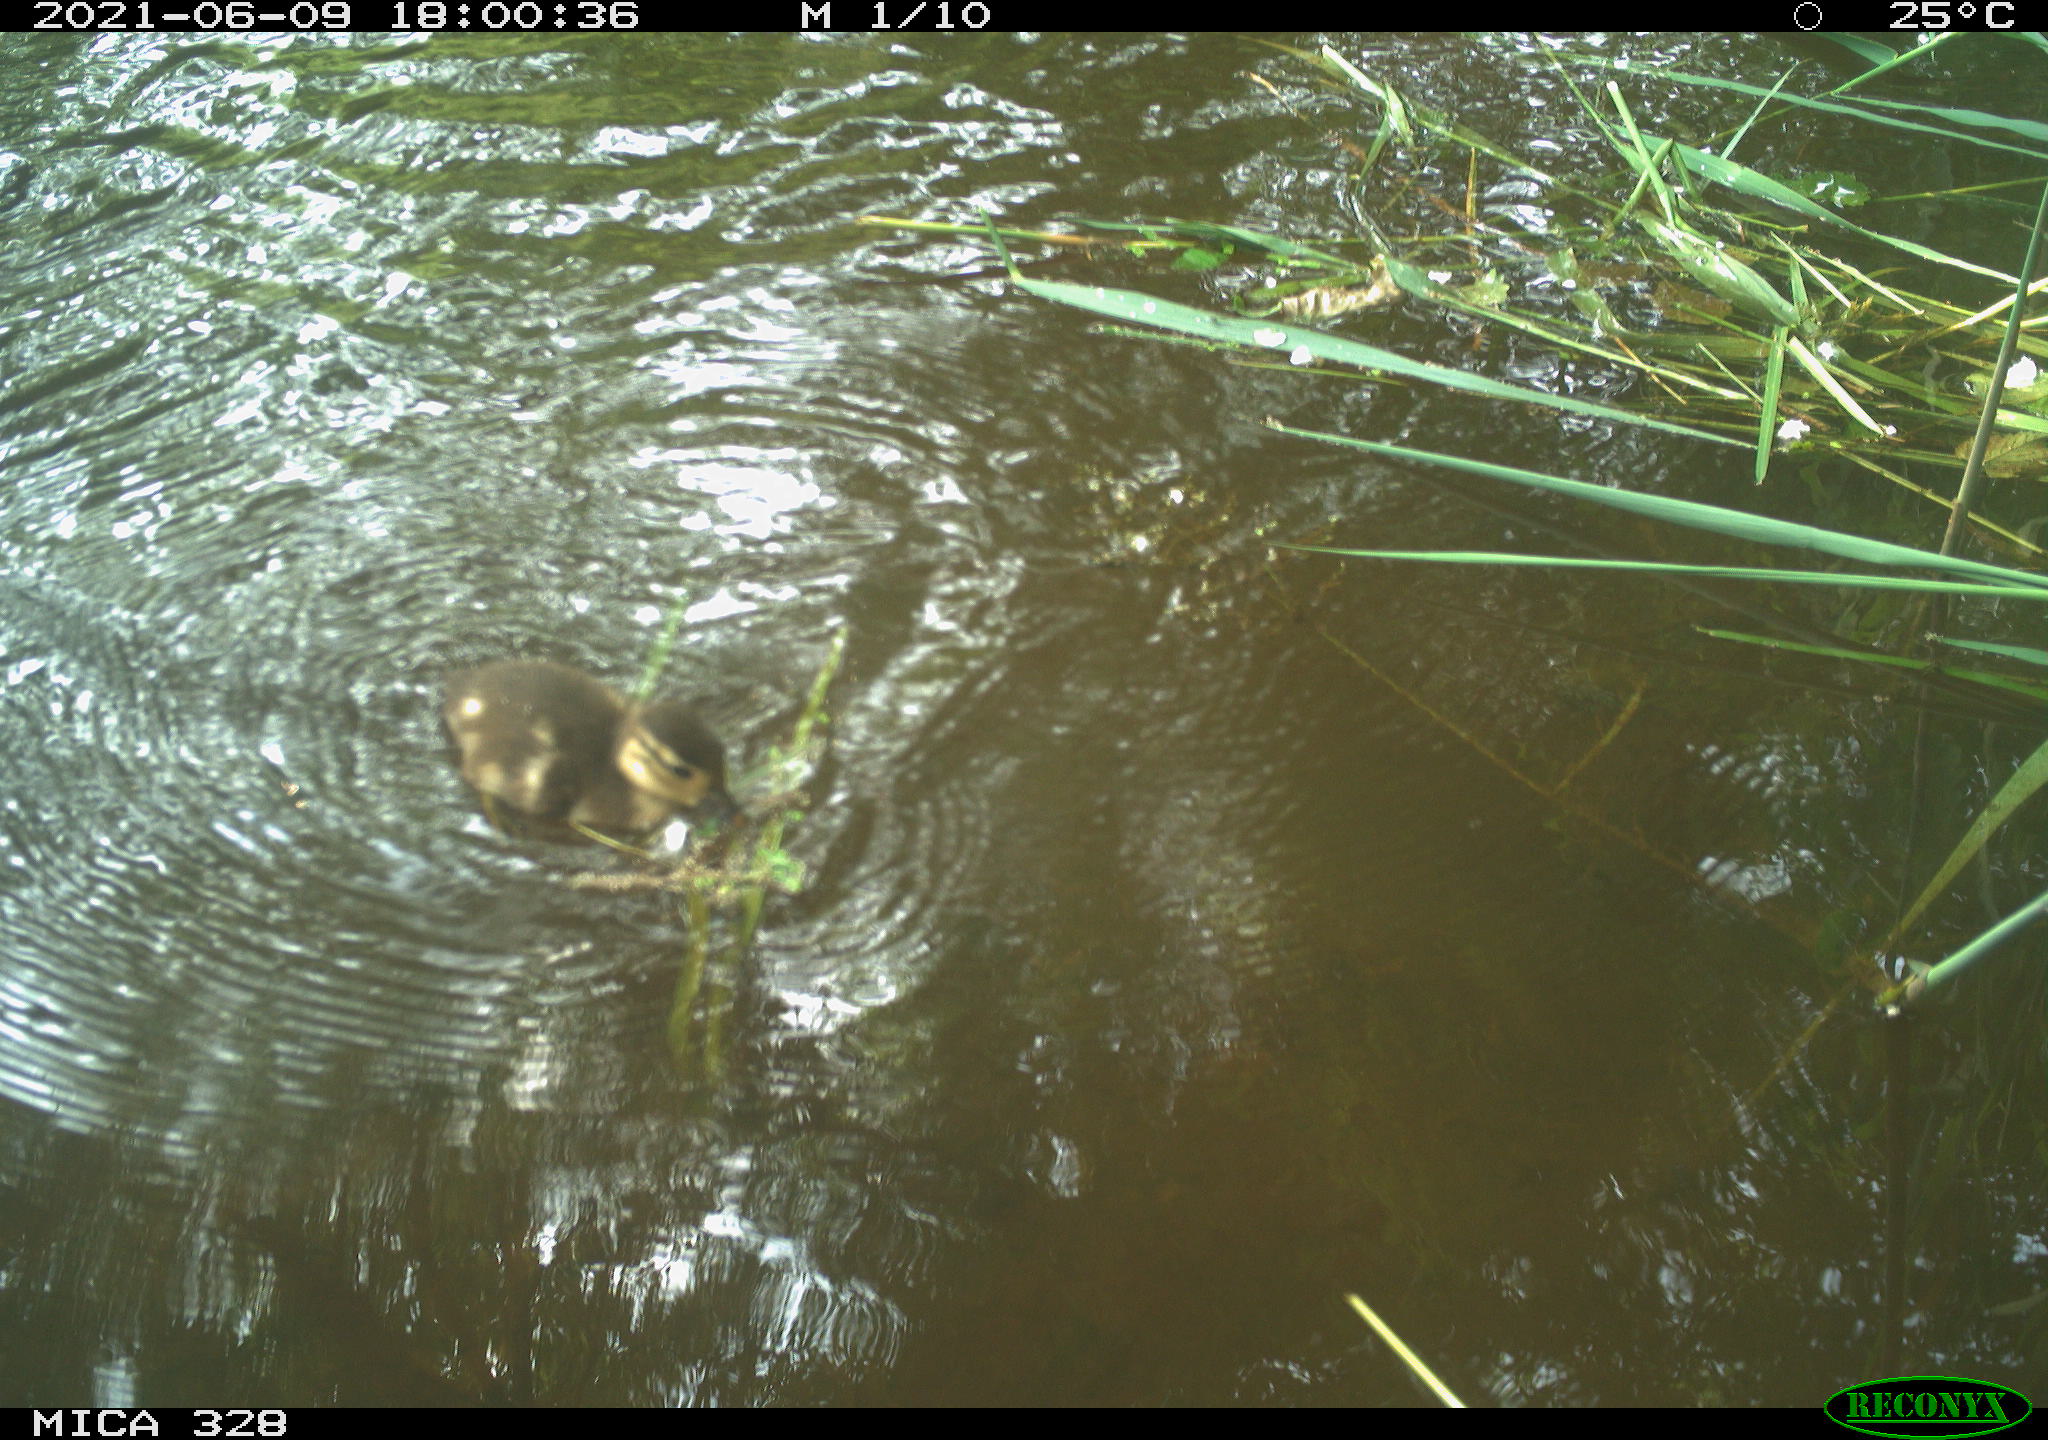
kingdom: Animalia
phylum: Chordata
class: Aves
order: Anseriformes
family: Anatidae
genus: Aix
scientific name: Aix galericulata
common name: Mandarin duck
